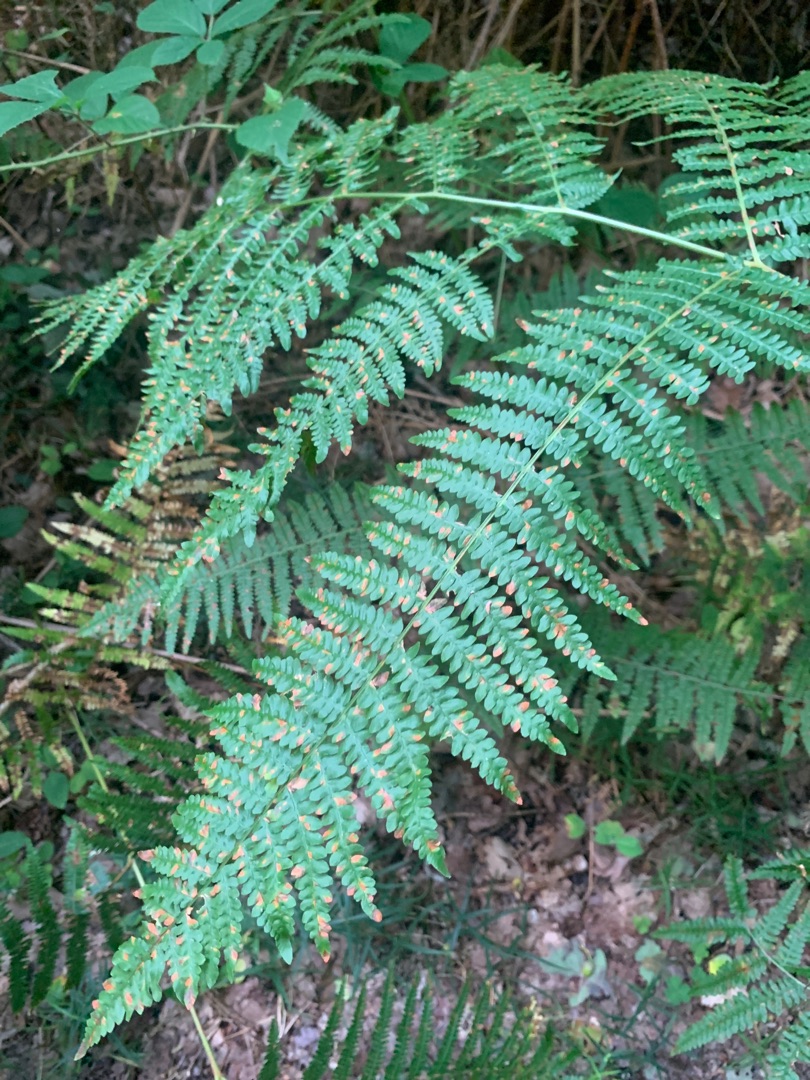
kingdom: Plantae
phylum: Tracheophyta
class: Polypodiopsida
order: Polypodiales
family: Dennstaedtiaceae
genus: Pteridium
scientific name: Pteridium aquilinum
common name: Ørnebregne
